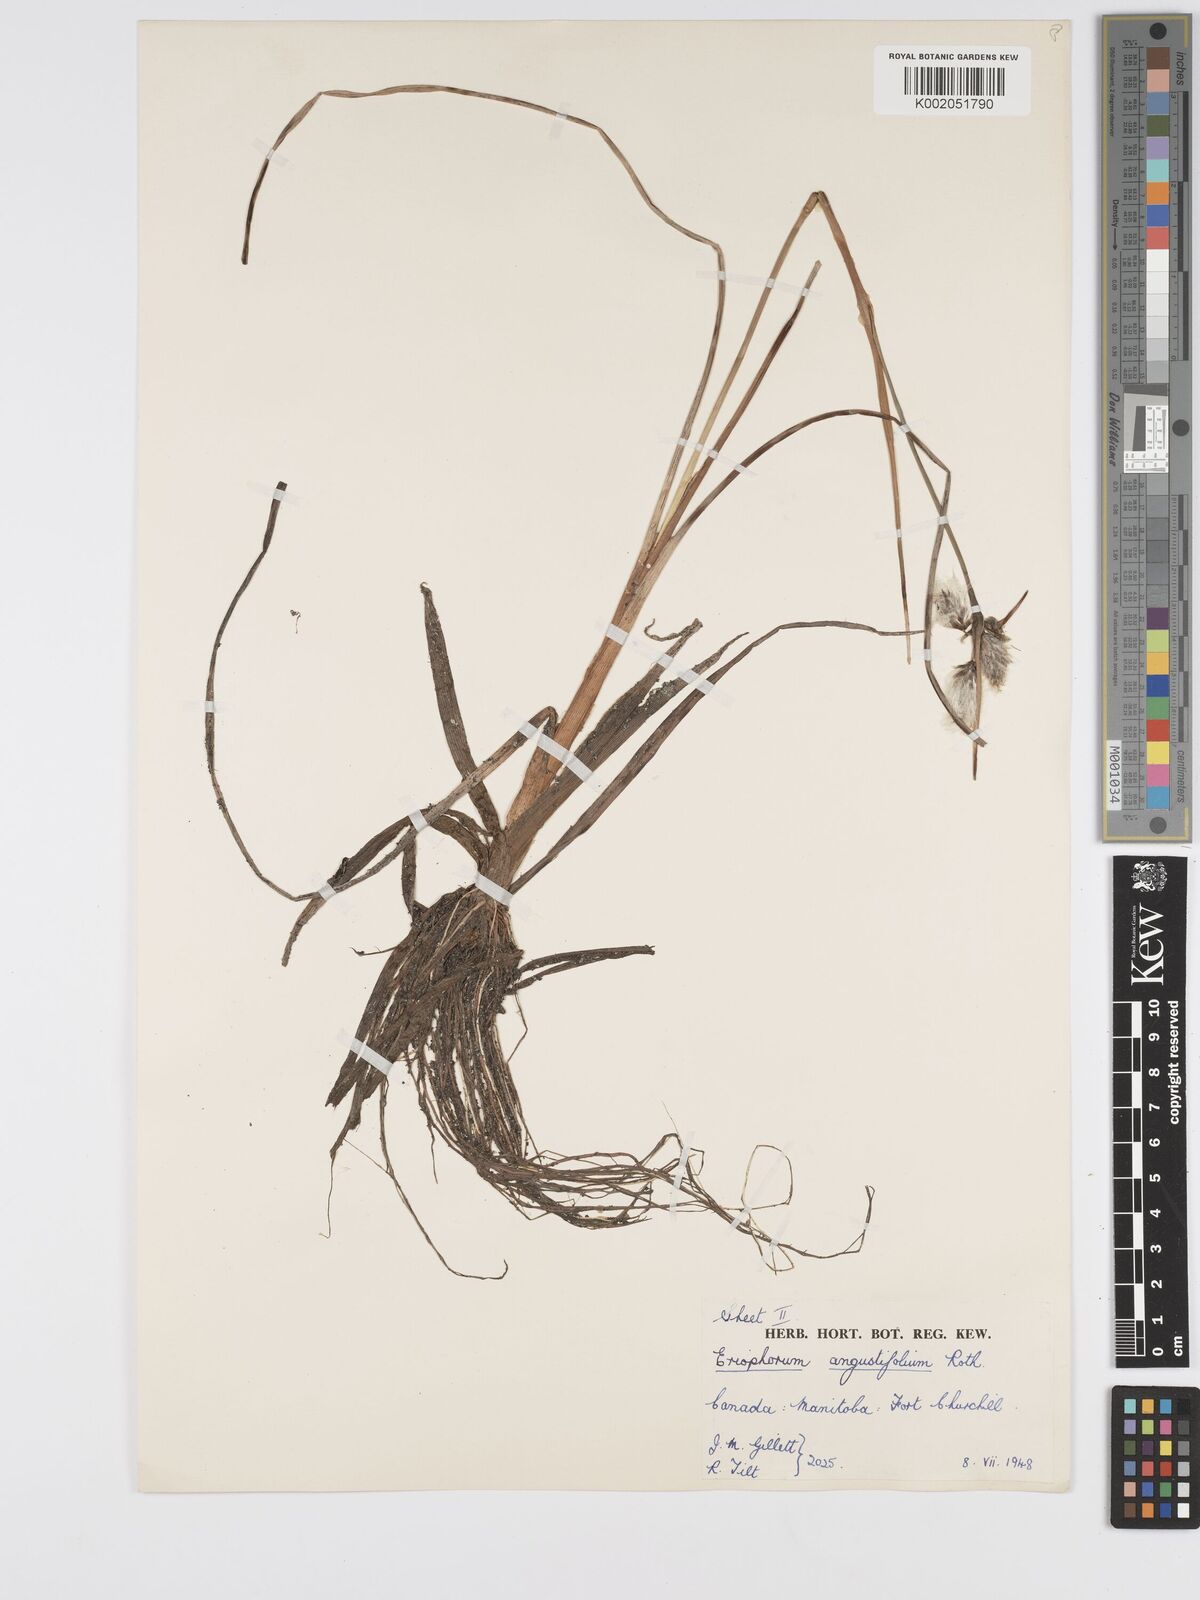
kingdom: Plantae
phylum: Tracheophyta
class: Liliopsida
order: Poales
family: Cyperaceae
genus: Eriophorum
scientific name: Eriophorum angustifolium
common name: Common cottongrass
